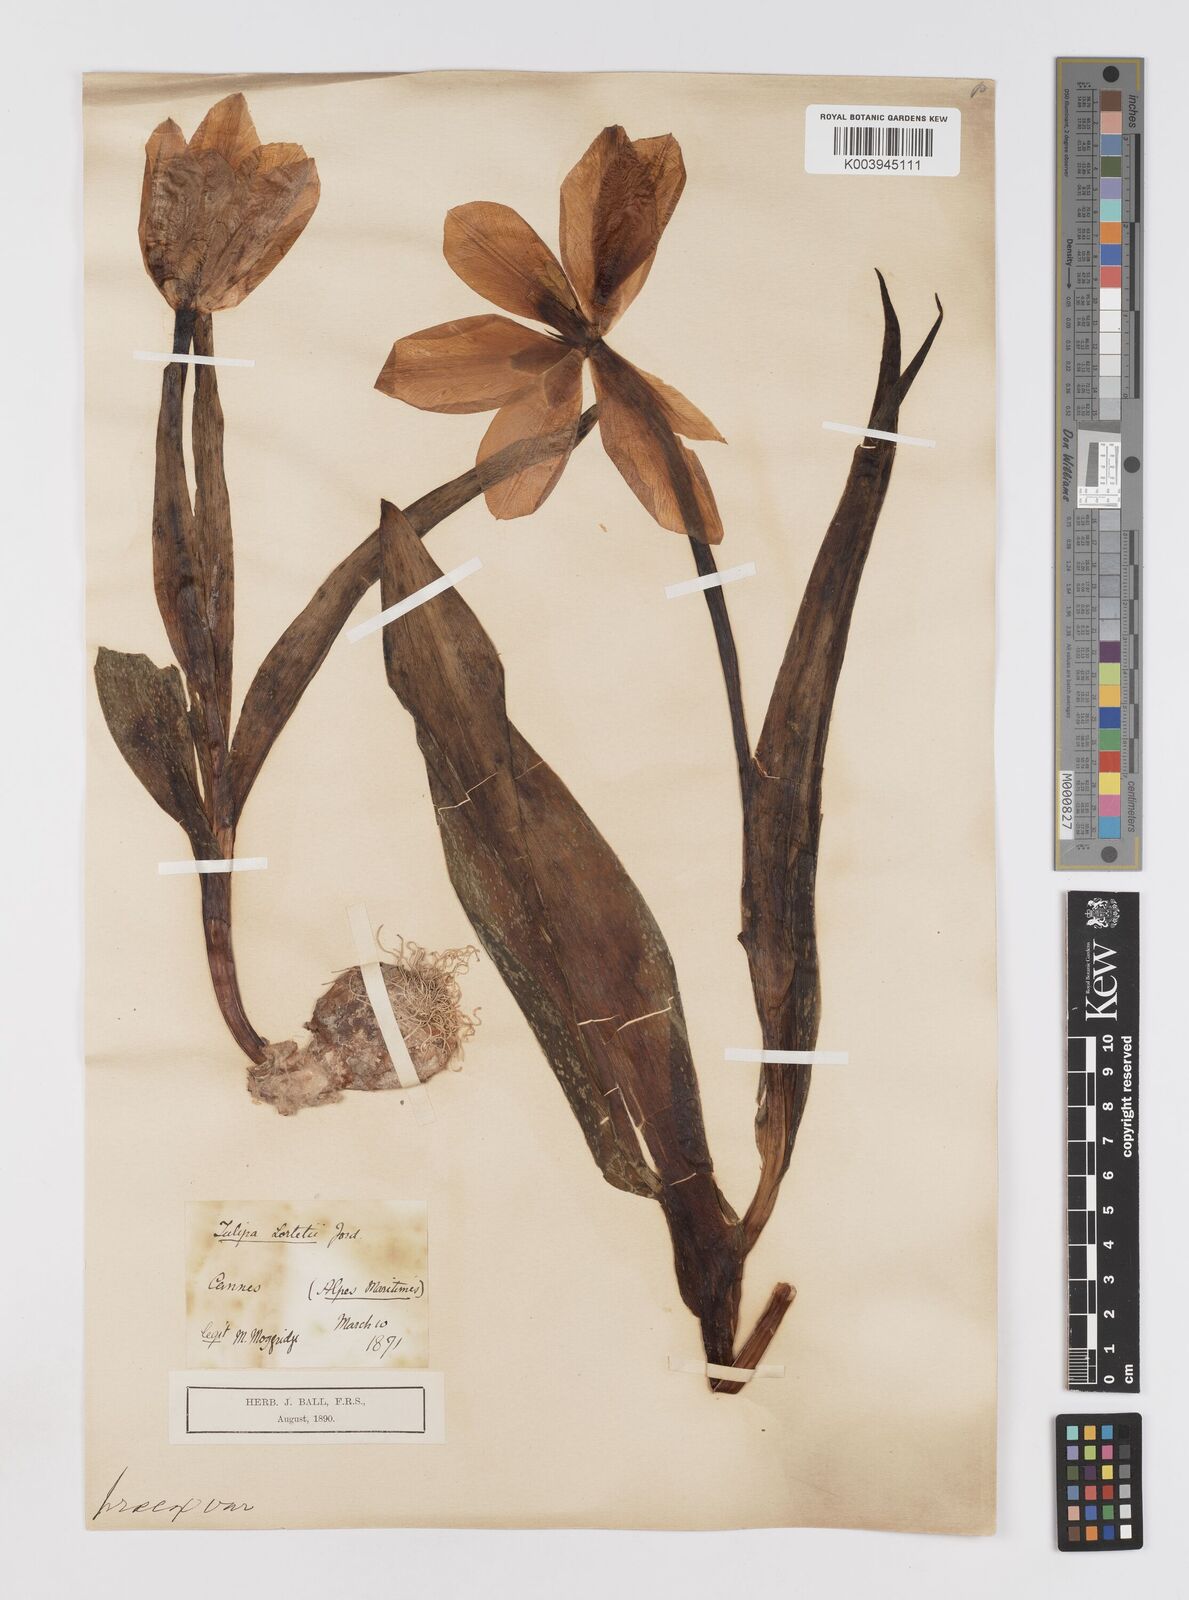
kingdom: Plantae
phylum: Tracheophyta
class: Liliopsida
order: Liliales
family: Liliaceae
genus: Tulipa
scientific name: Tulipa
